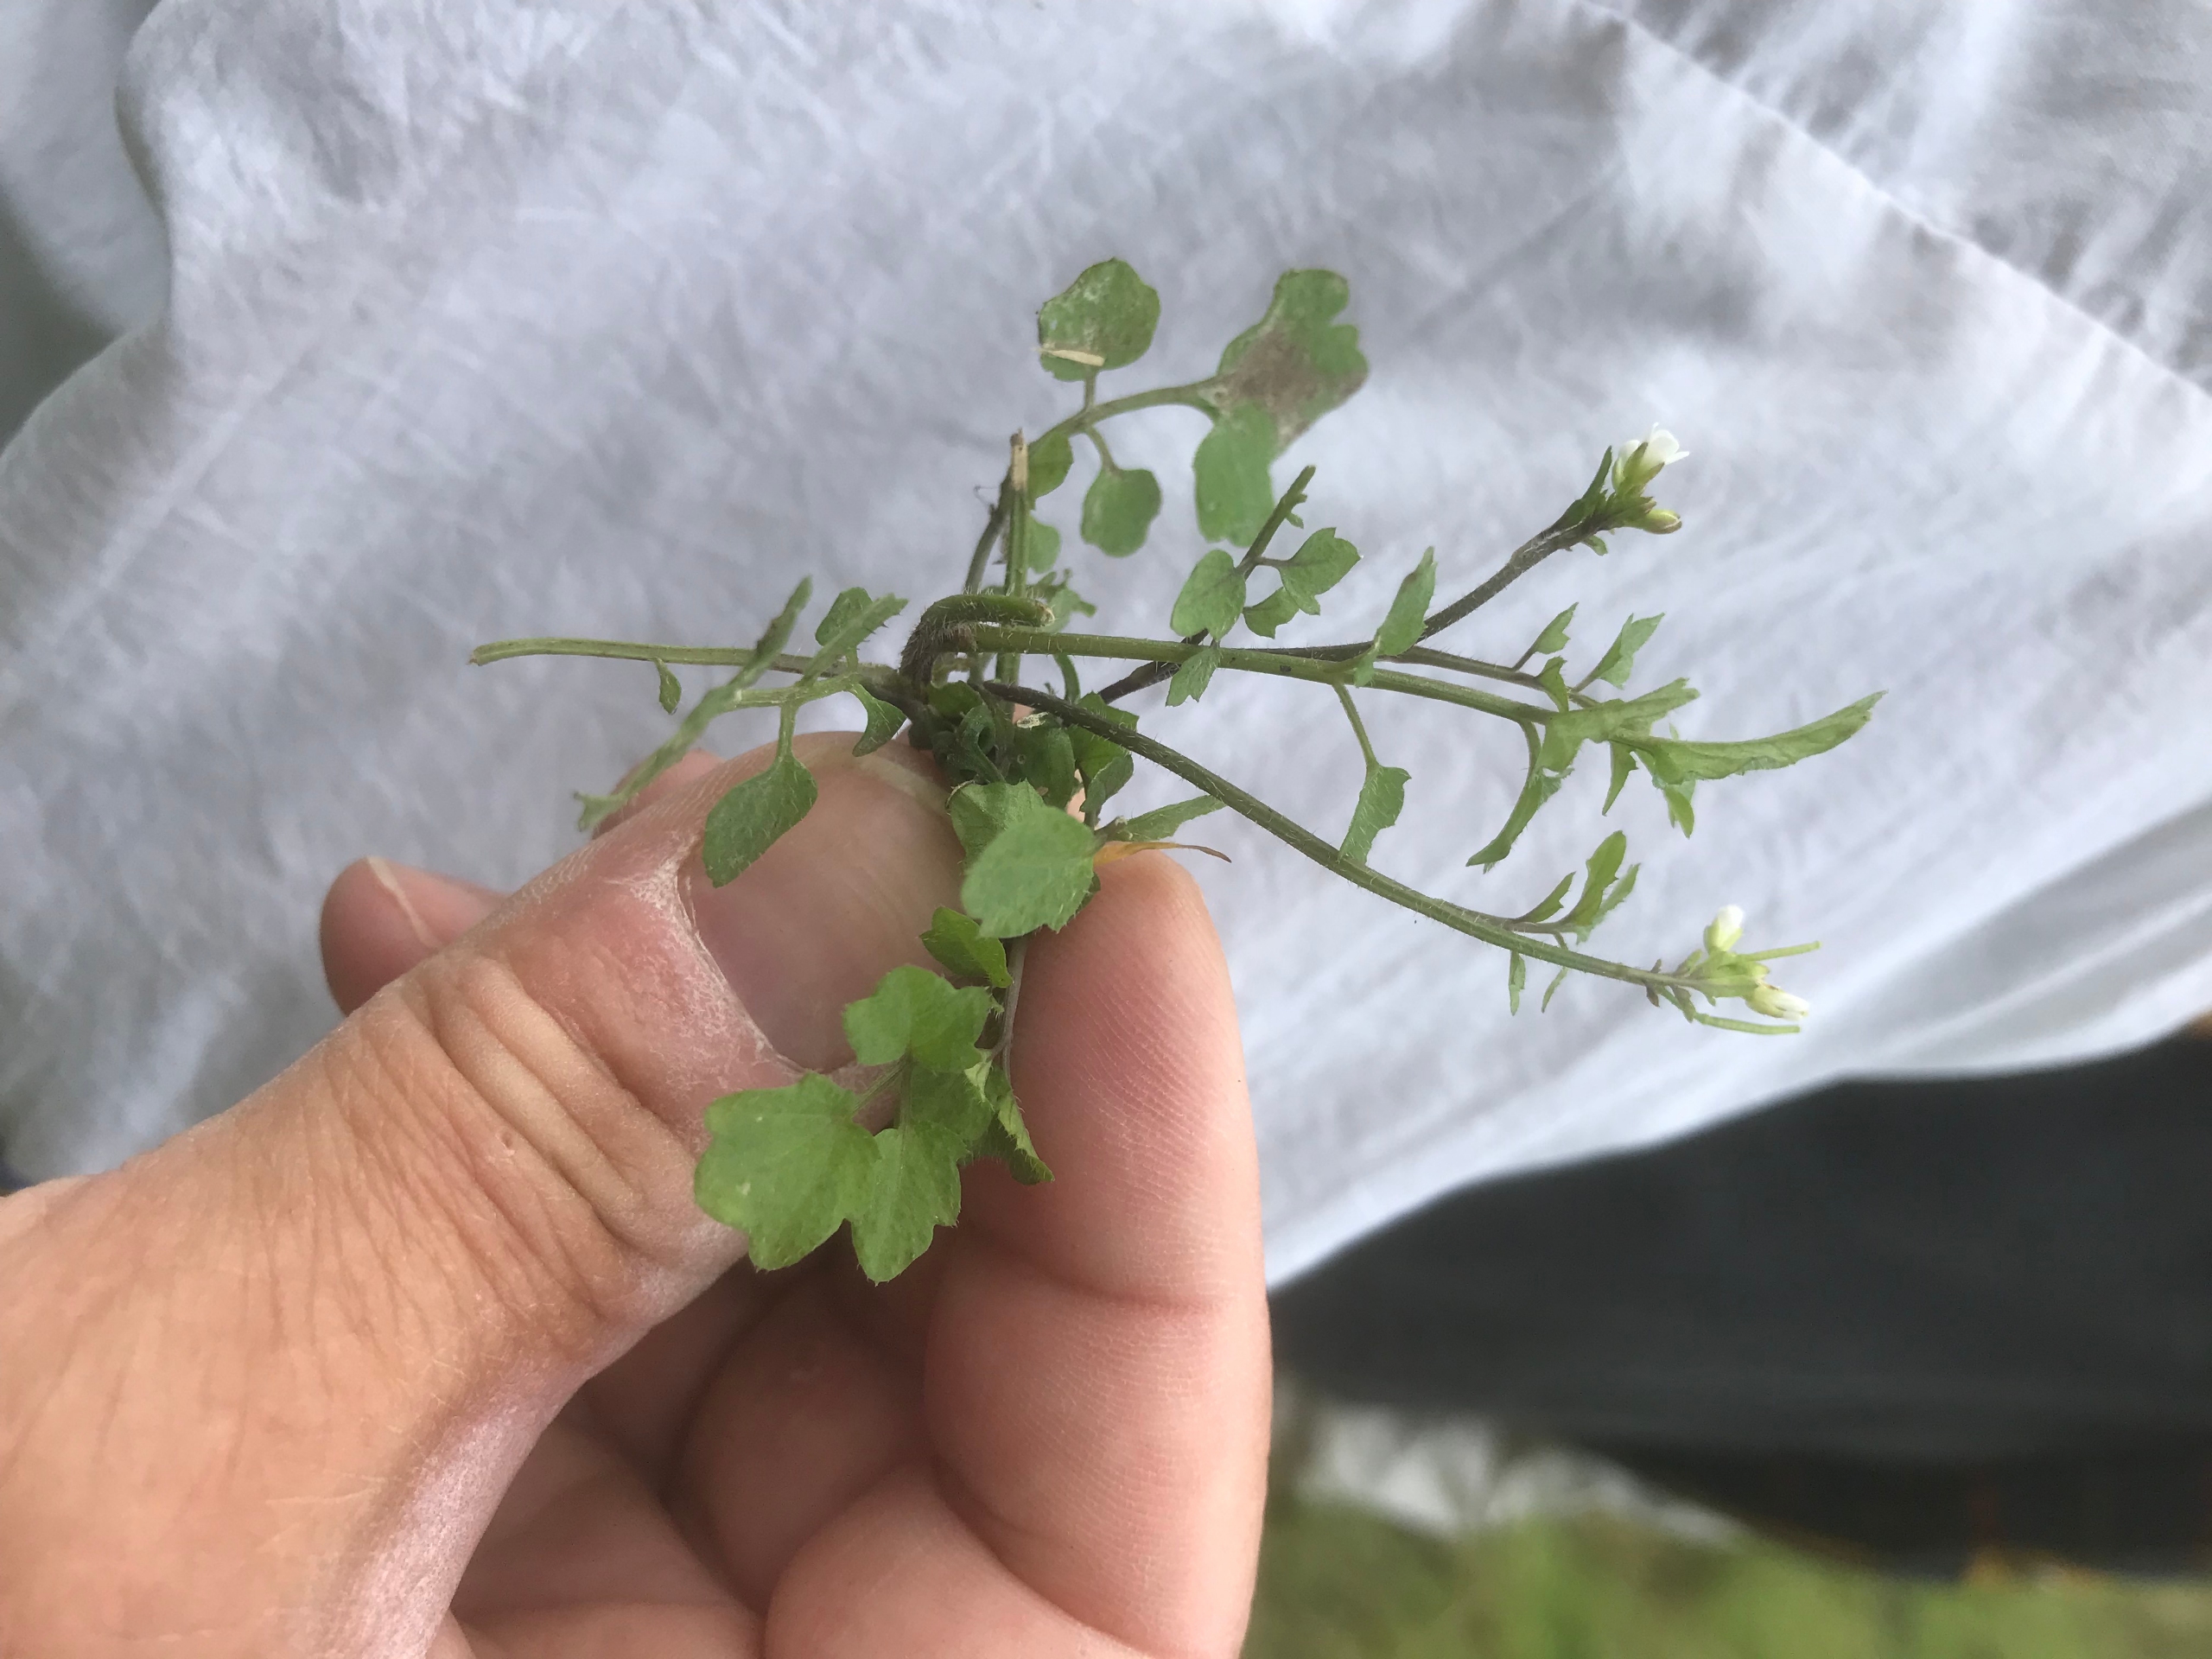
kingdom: Plantae
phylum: Tracheophyta
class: Magnoliopsida
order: Brassicales
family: Brassicaceae
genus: Cardamine
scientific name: Cardamine flexuosa
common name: Skov-springklap
